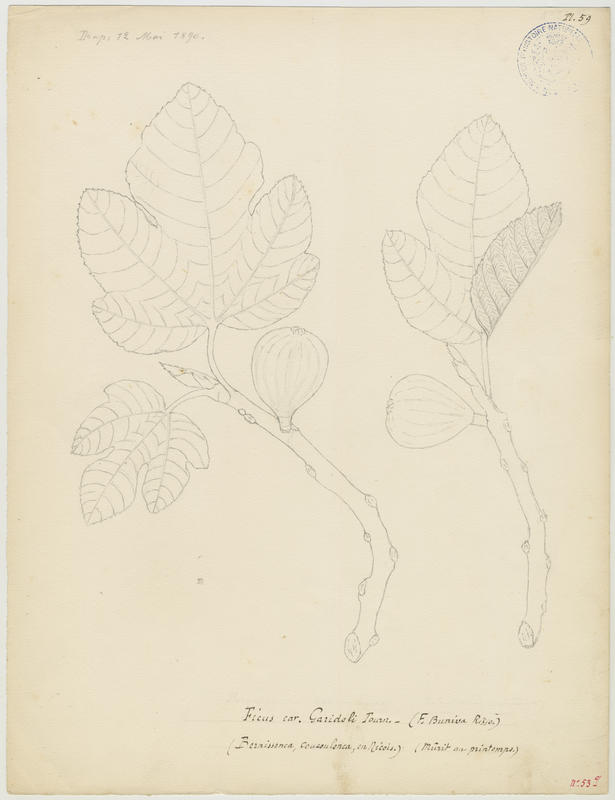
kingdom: Plantae
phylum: Tracheophyta
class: Magnoliopsida
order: Rosales
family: Moraceae
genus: Ficus
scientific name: Ficus carica
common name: Fig
